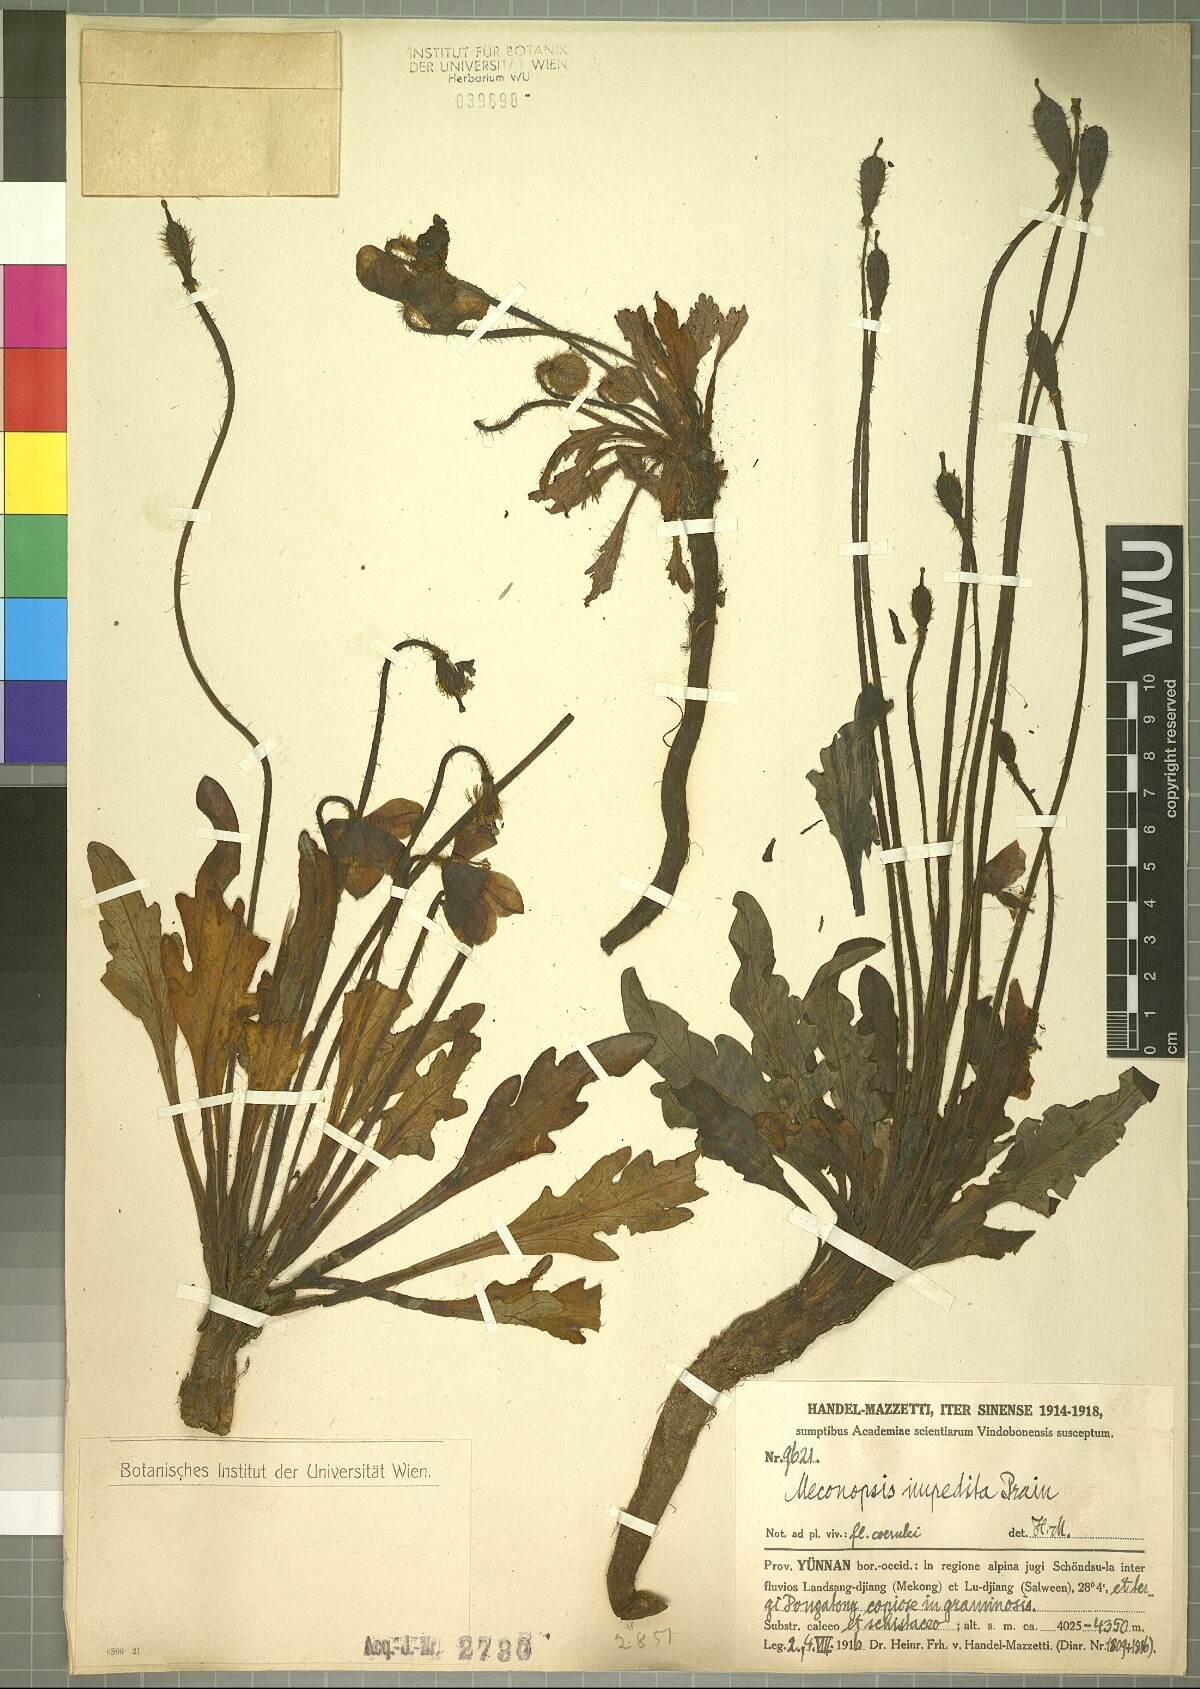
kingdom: Plantae
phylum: Tracheophyta
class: Magnoliopsida
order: Ranunculales
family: Papaveraceae
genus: Meconopsis
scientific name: Meconopsis impedita
